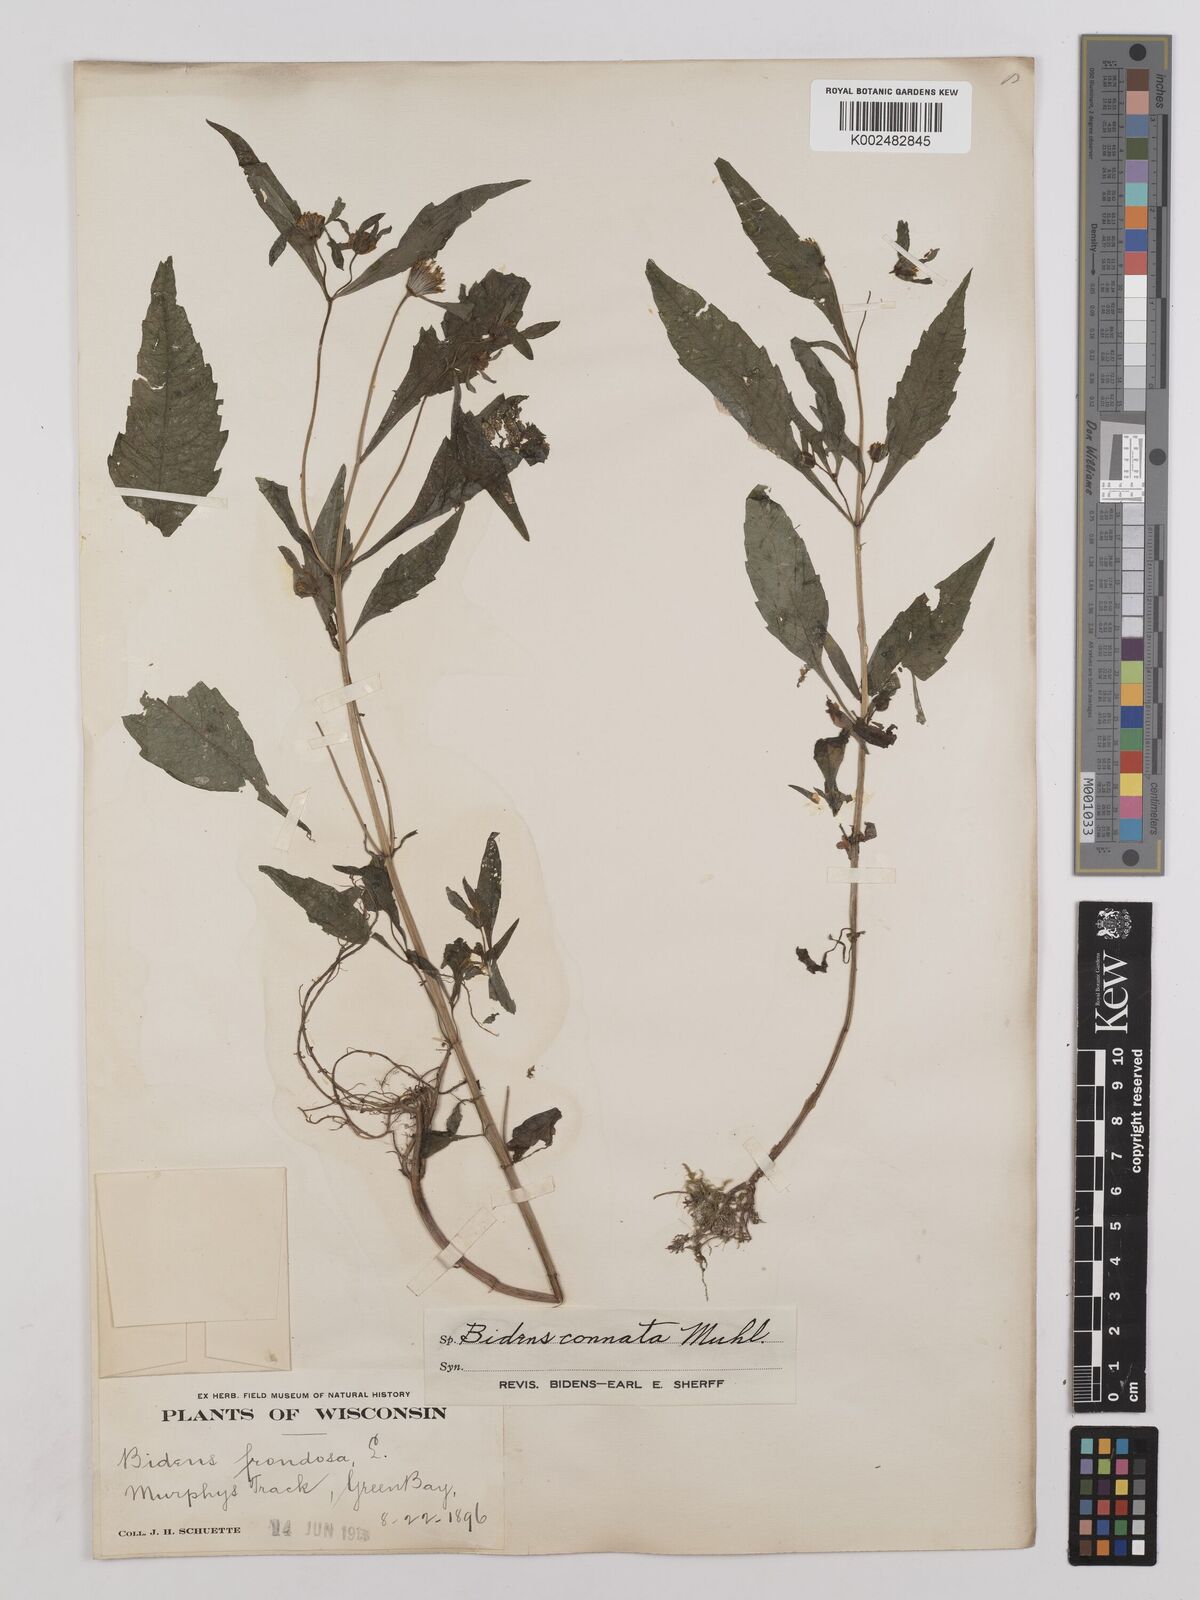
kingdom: Plantae
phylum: Tracheophyta
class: Magnoliopsida
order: Asterales
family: Asteraceae
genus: Bidens
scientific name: Bidens connata
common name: London bur-marigold
